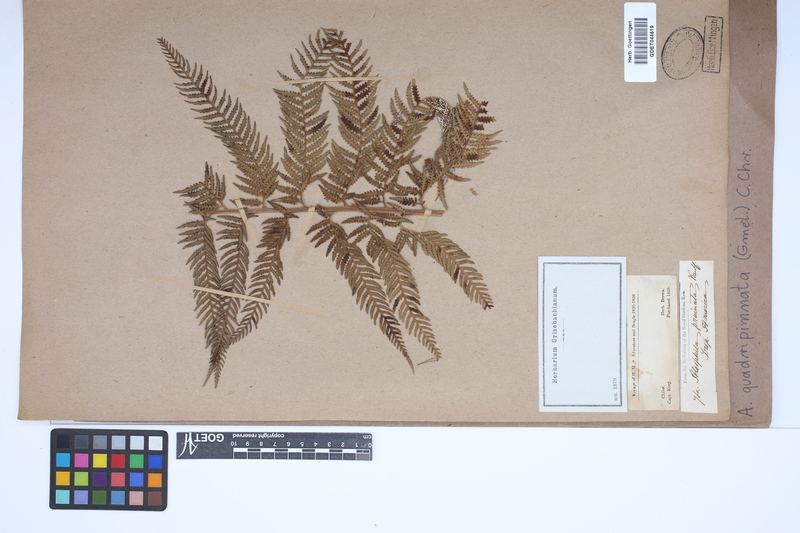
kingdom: Plantae
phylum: Tracheophyta
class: Polypodiopsida
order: Cyatheales
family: Dicksoniaceae
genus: Lophosoria
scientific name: Lophosoria quadripinnata
